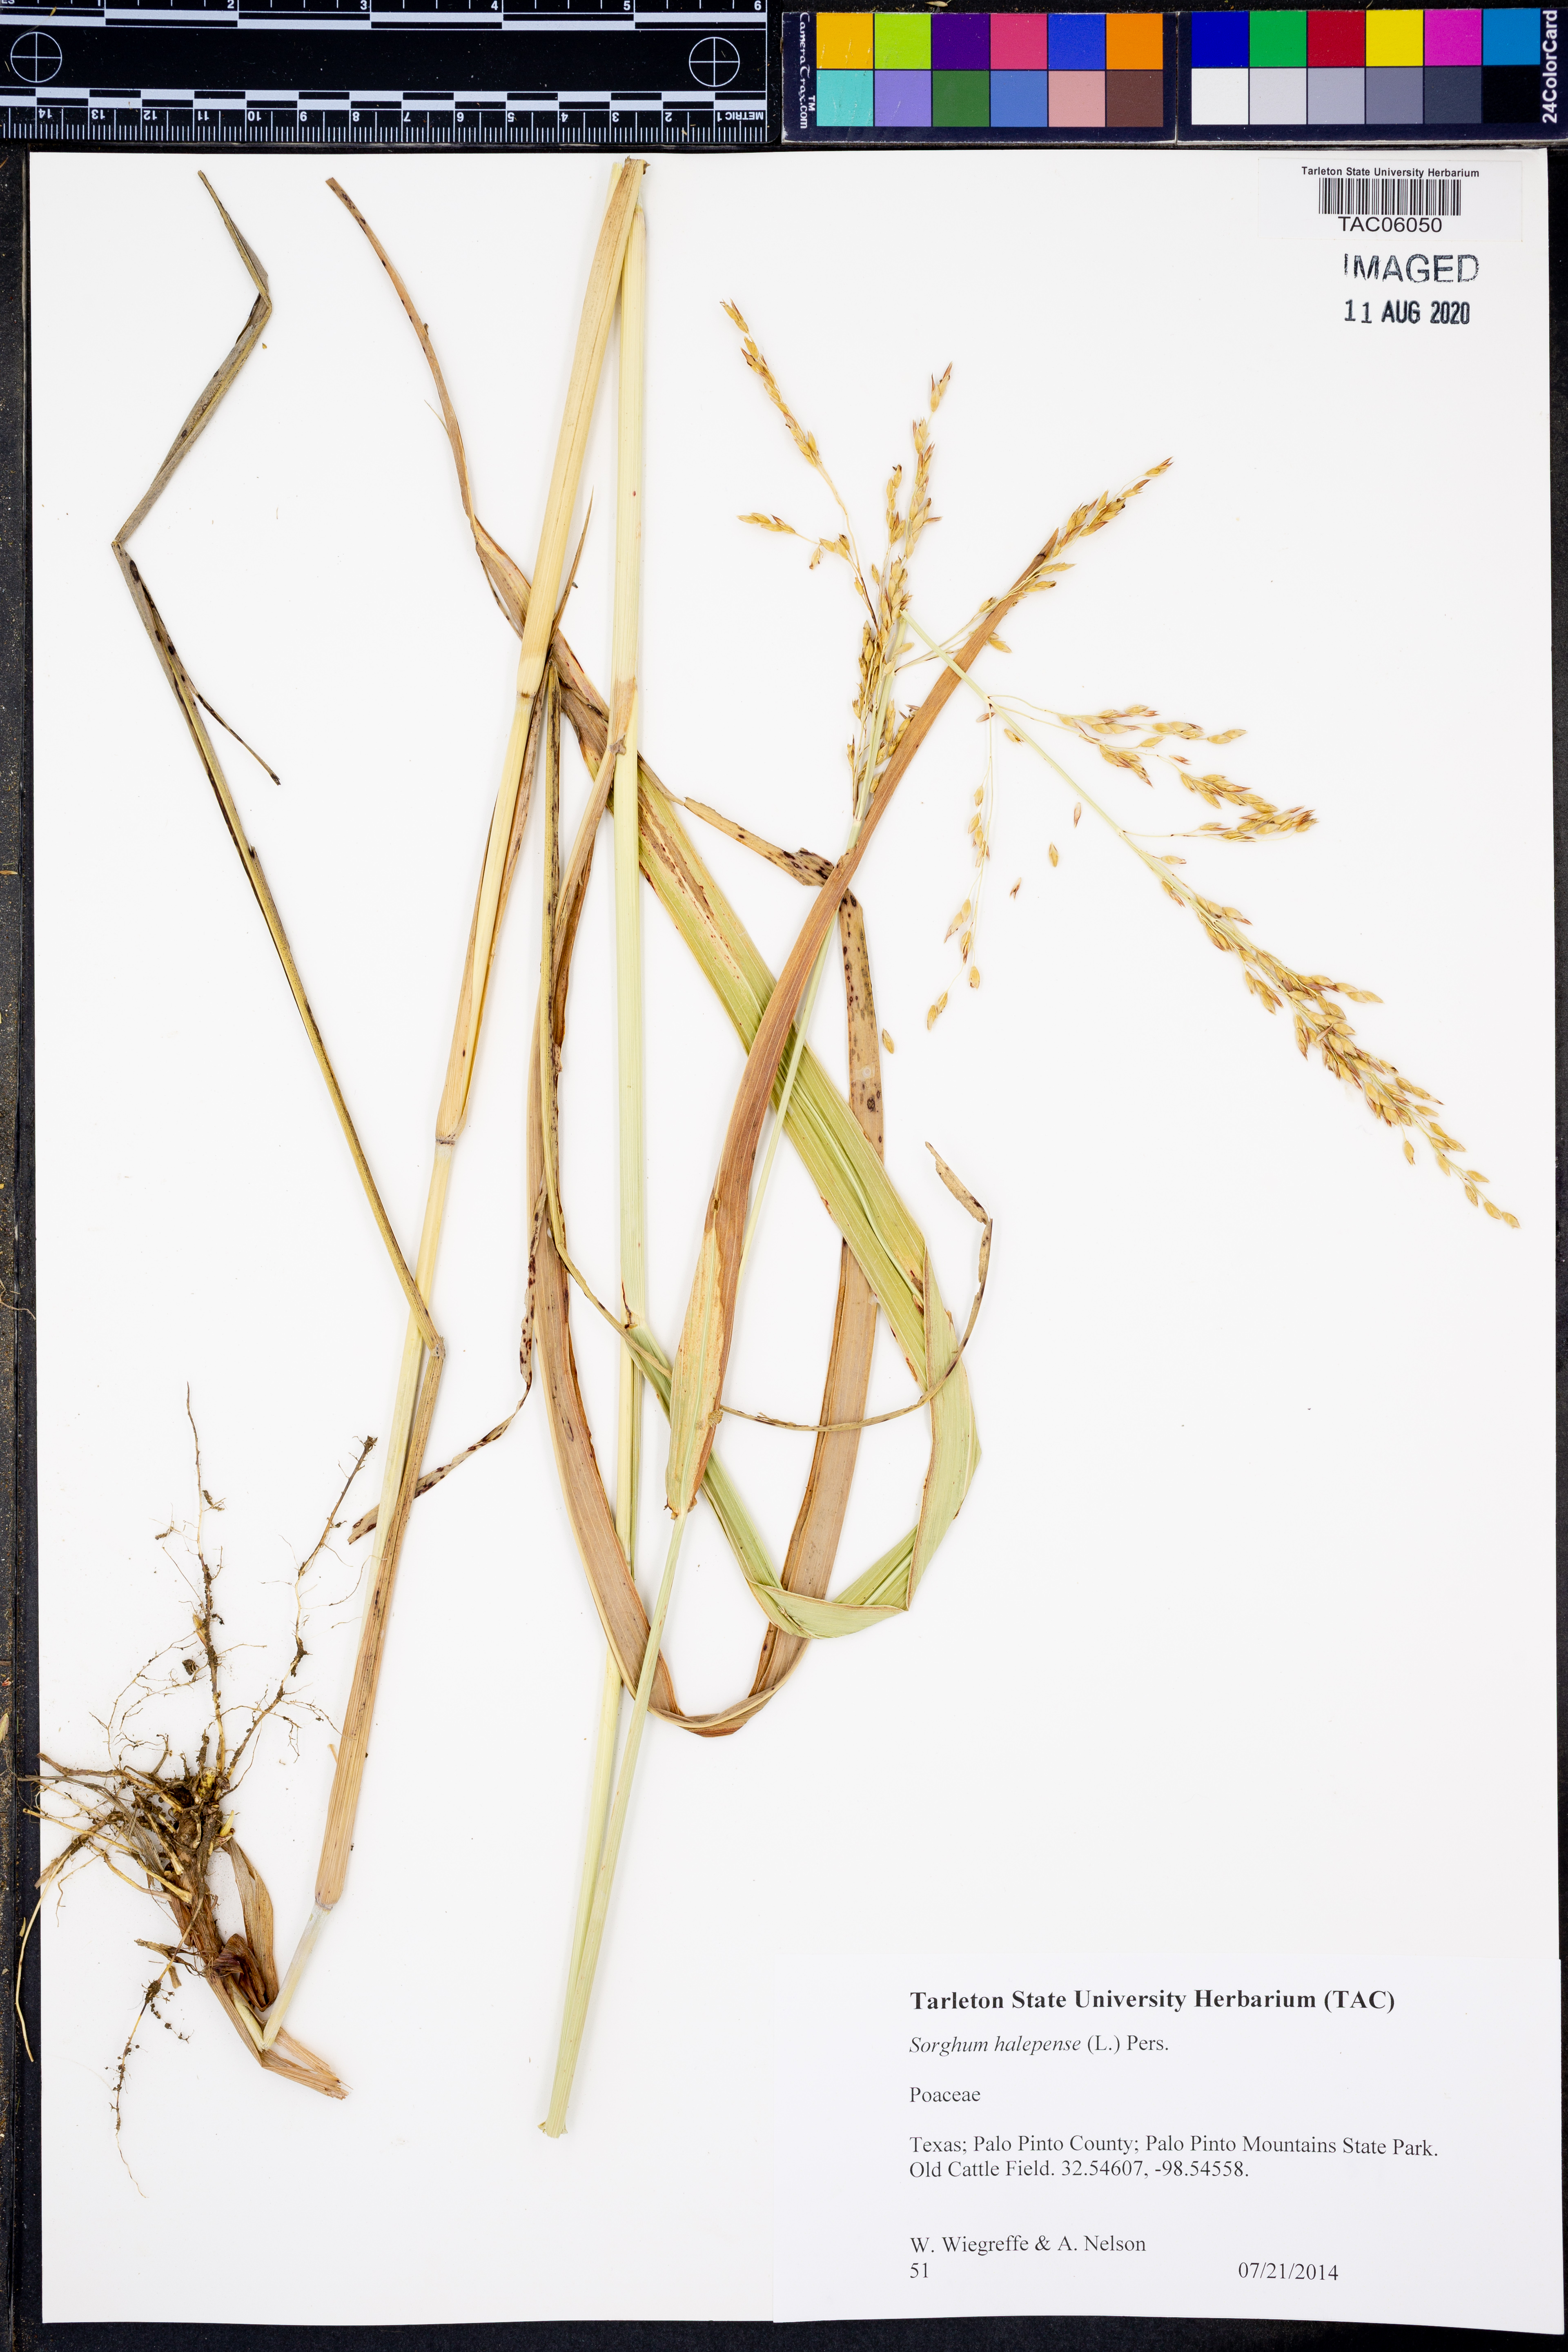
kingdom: Plantae
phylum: Tracheophyta
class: Liliopsida
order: Poales
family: Poaceae
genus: Sorghum
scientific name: Sorghum halepense
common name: Johnson-grass
